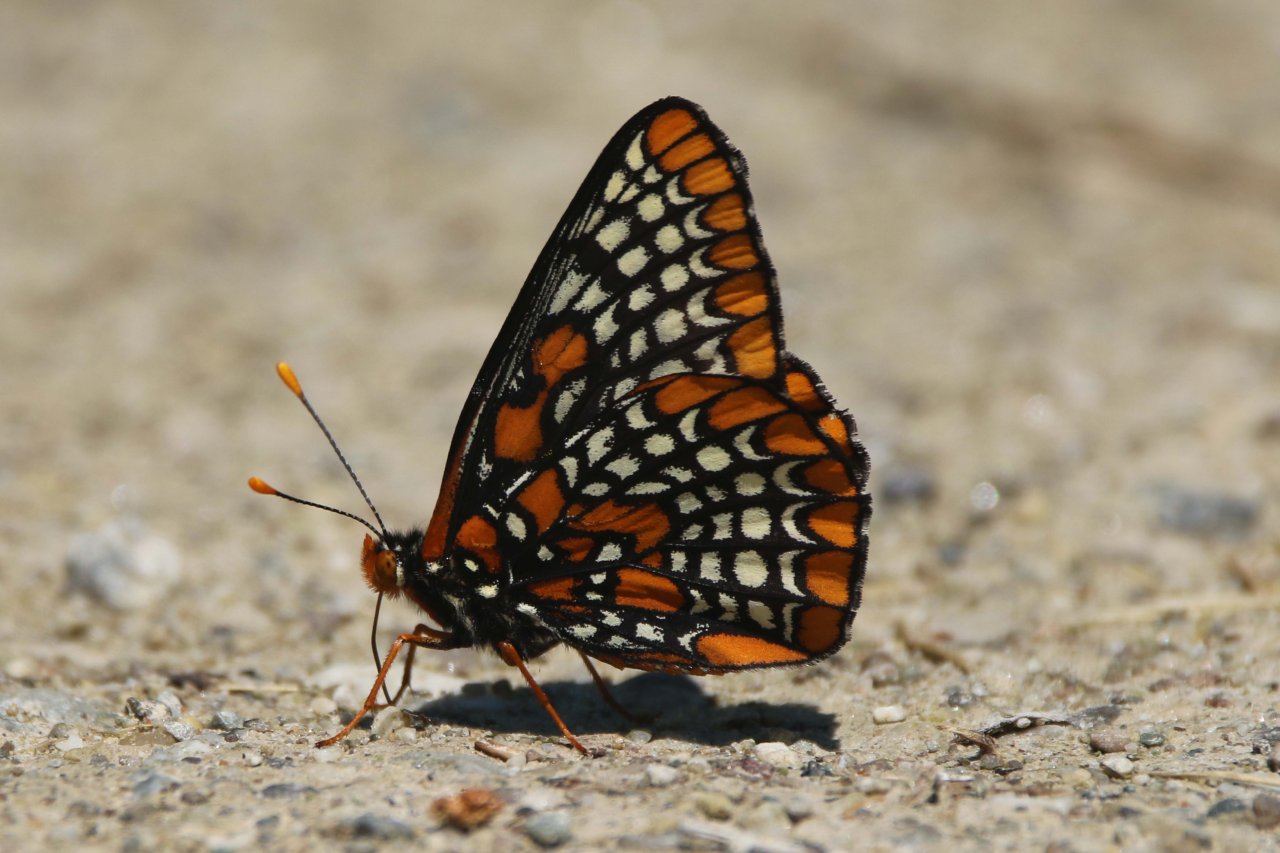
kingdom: Animalia
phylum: Arthropoda
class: Insecta
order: Lepidoptera
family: Nymphalidae
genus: Euphydryas
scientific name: Euphydryas phaeton
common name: Baltimore Checkerspot
